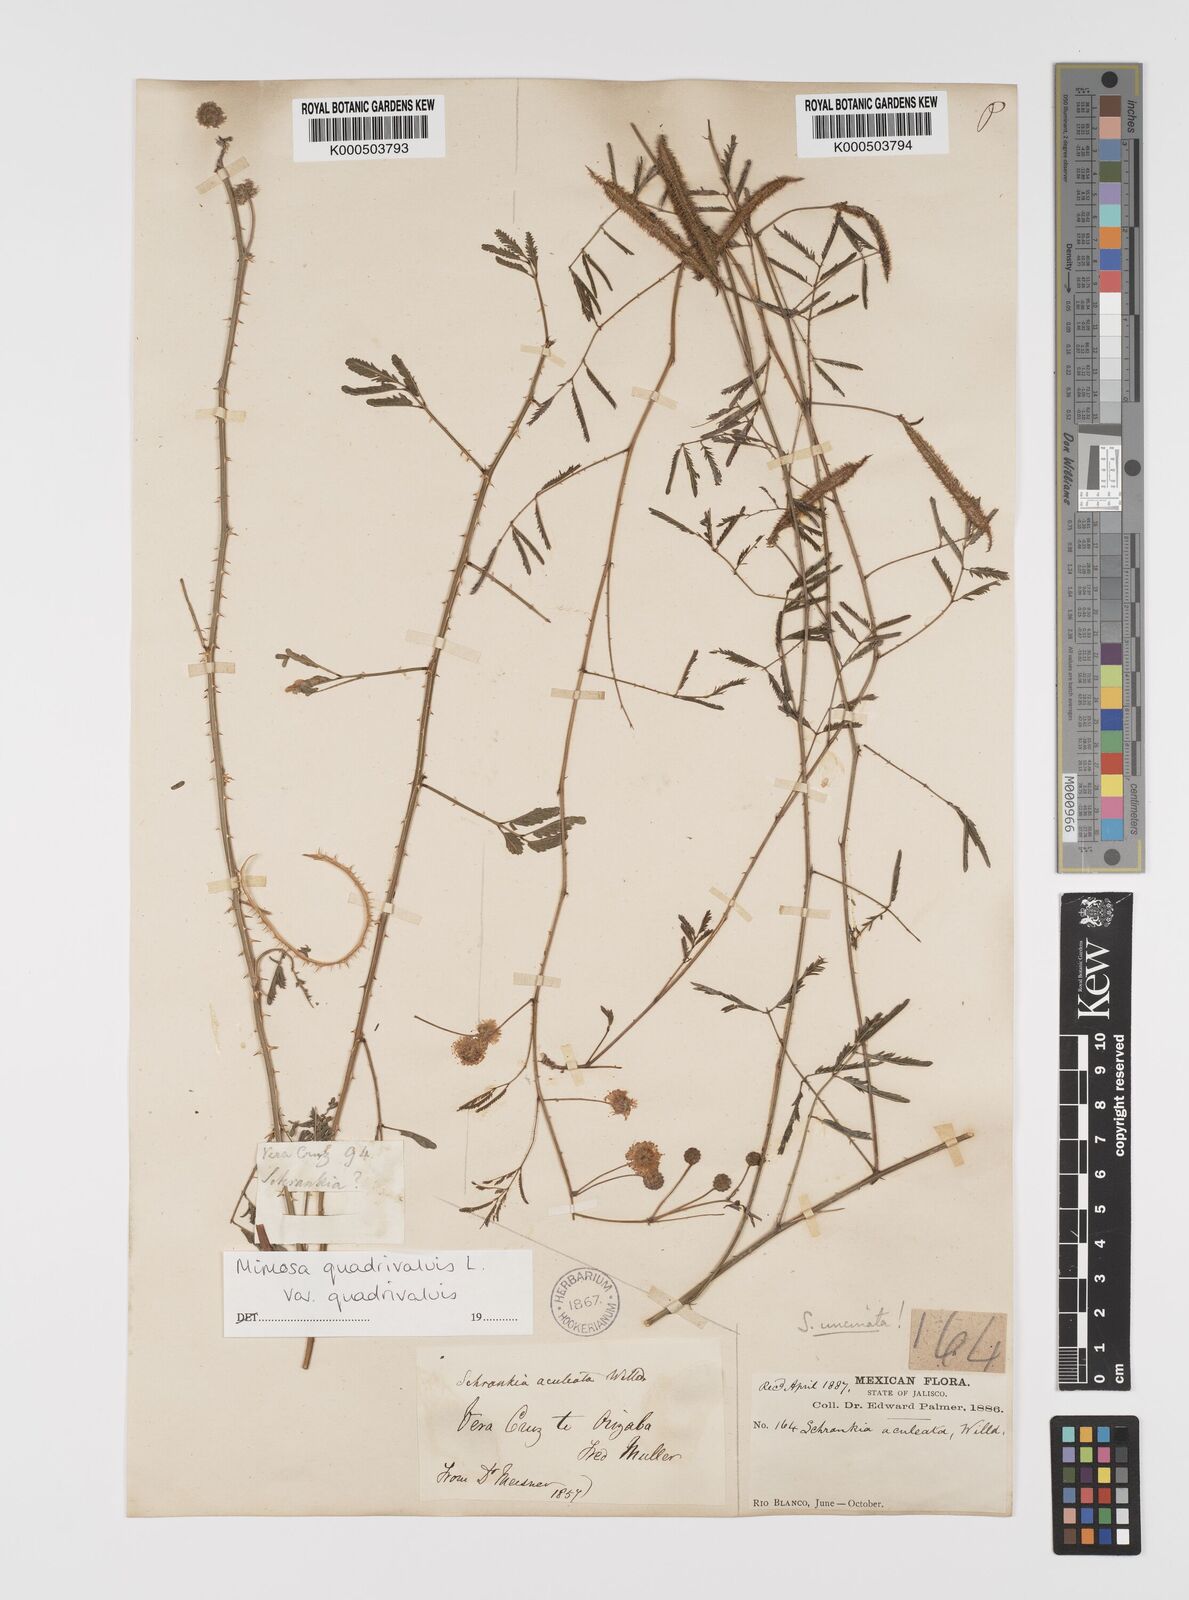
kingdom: Plantae
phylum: Tracheophyta
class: Magnoliopsida
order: Fabales
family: Fabaceae
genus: Mimosa
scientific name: Mimosa quadrivalvis
